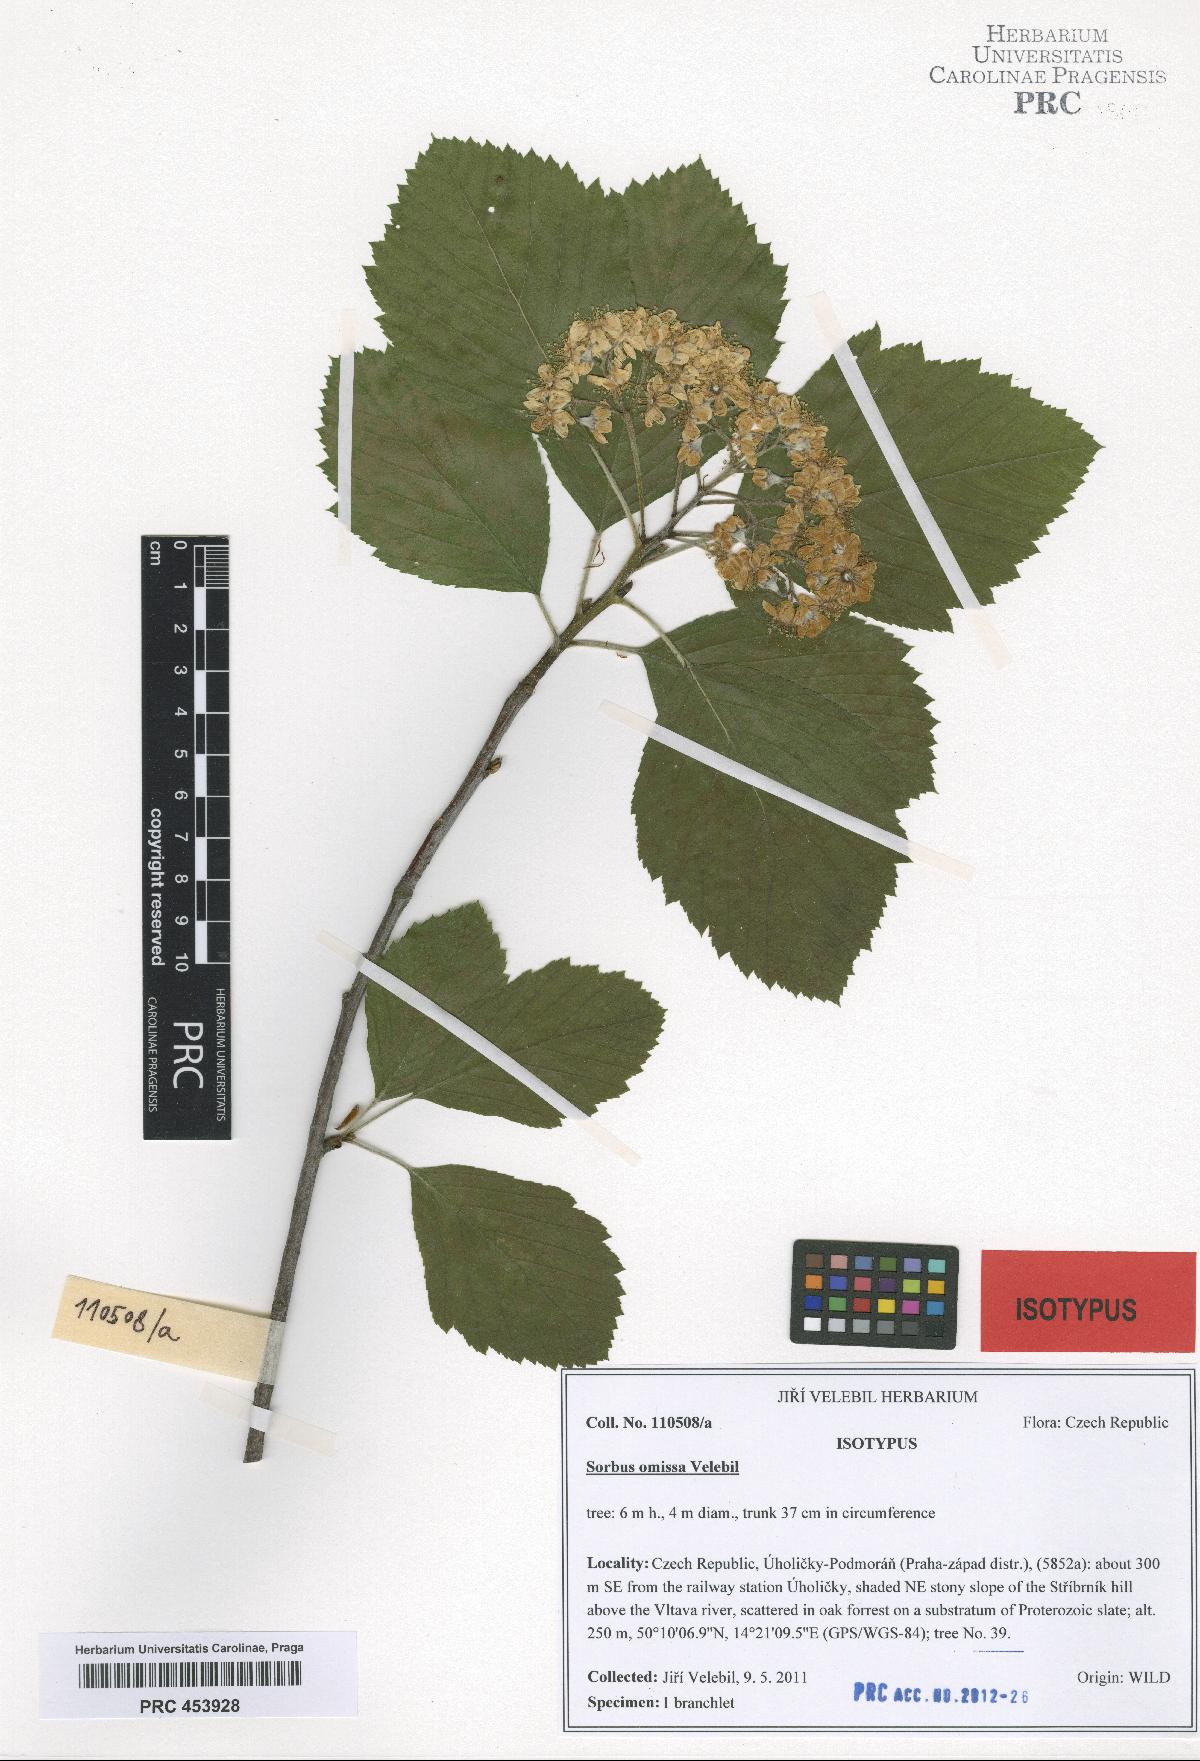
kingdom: Plantae
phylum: Tracheophyta
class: Magnoliopsida
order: Rosales
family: Rosaceae
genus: Karpatiosorbus
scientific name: Karpatiosorbus omissa
